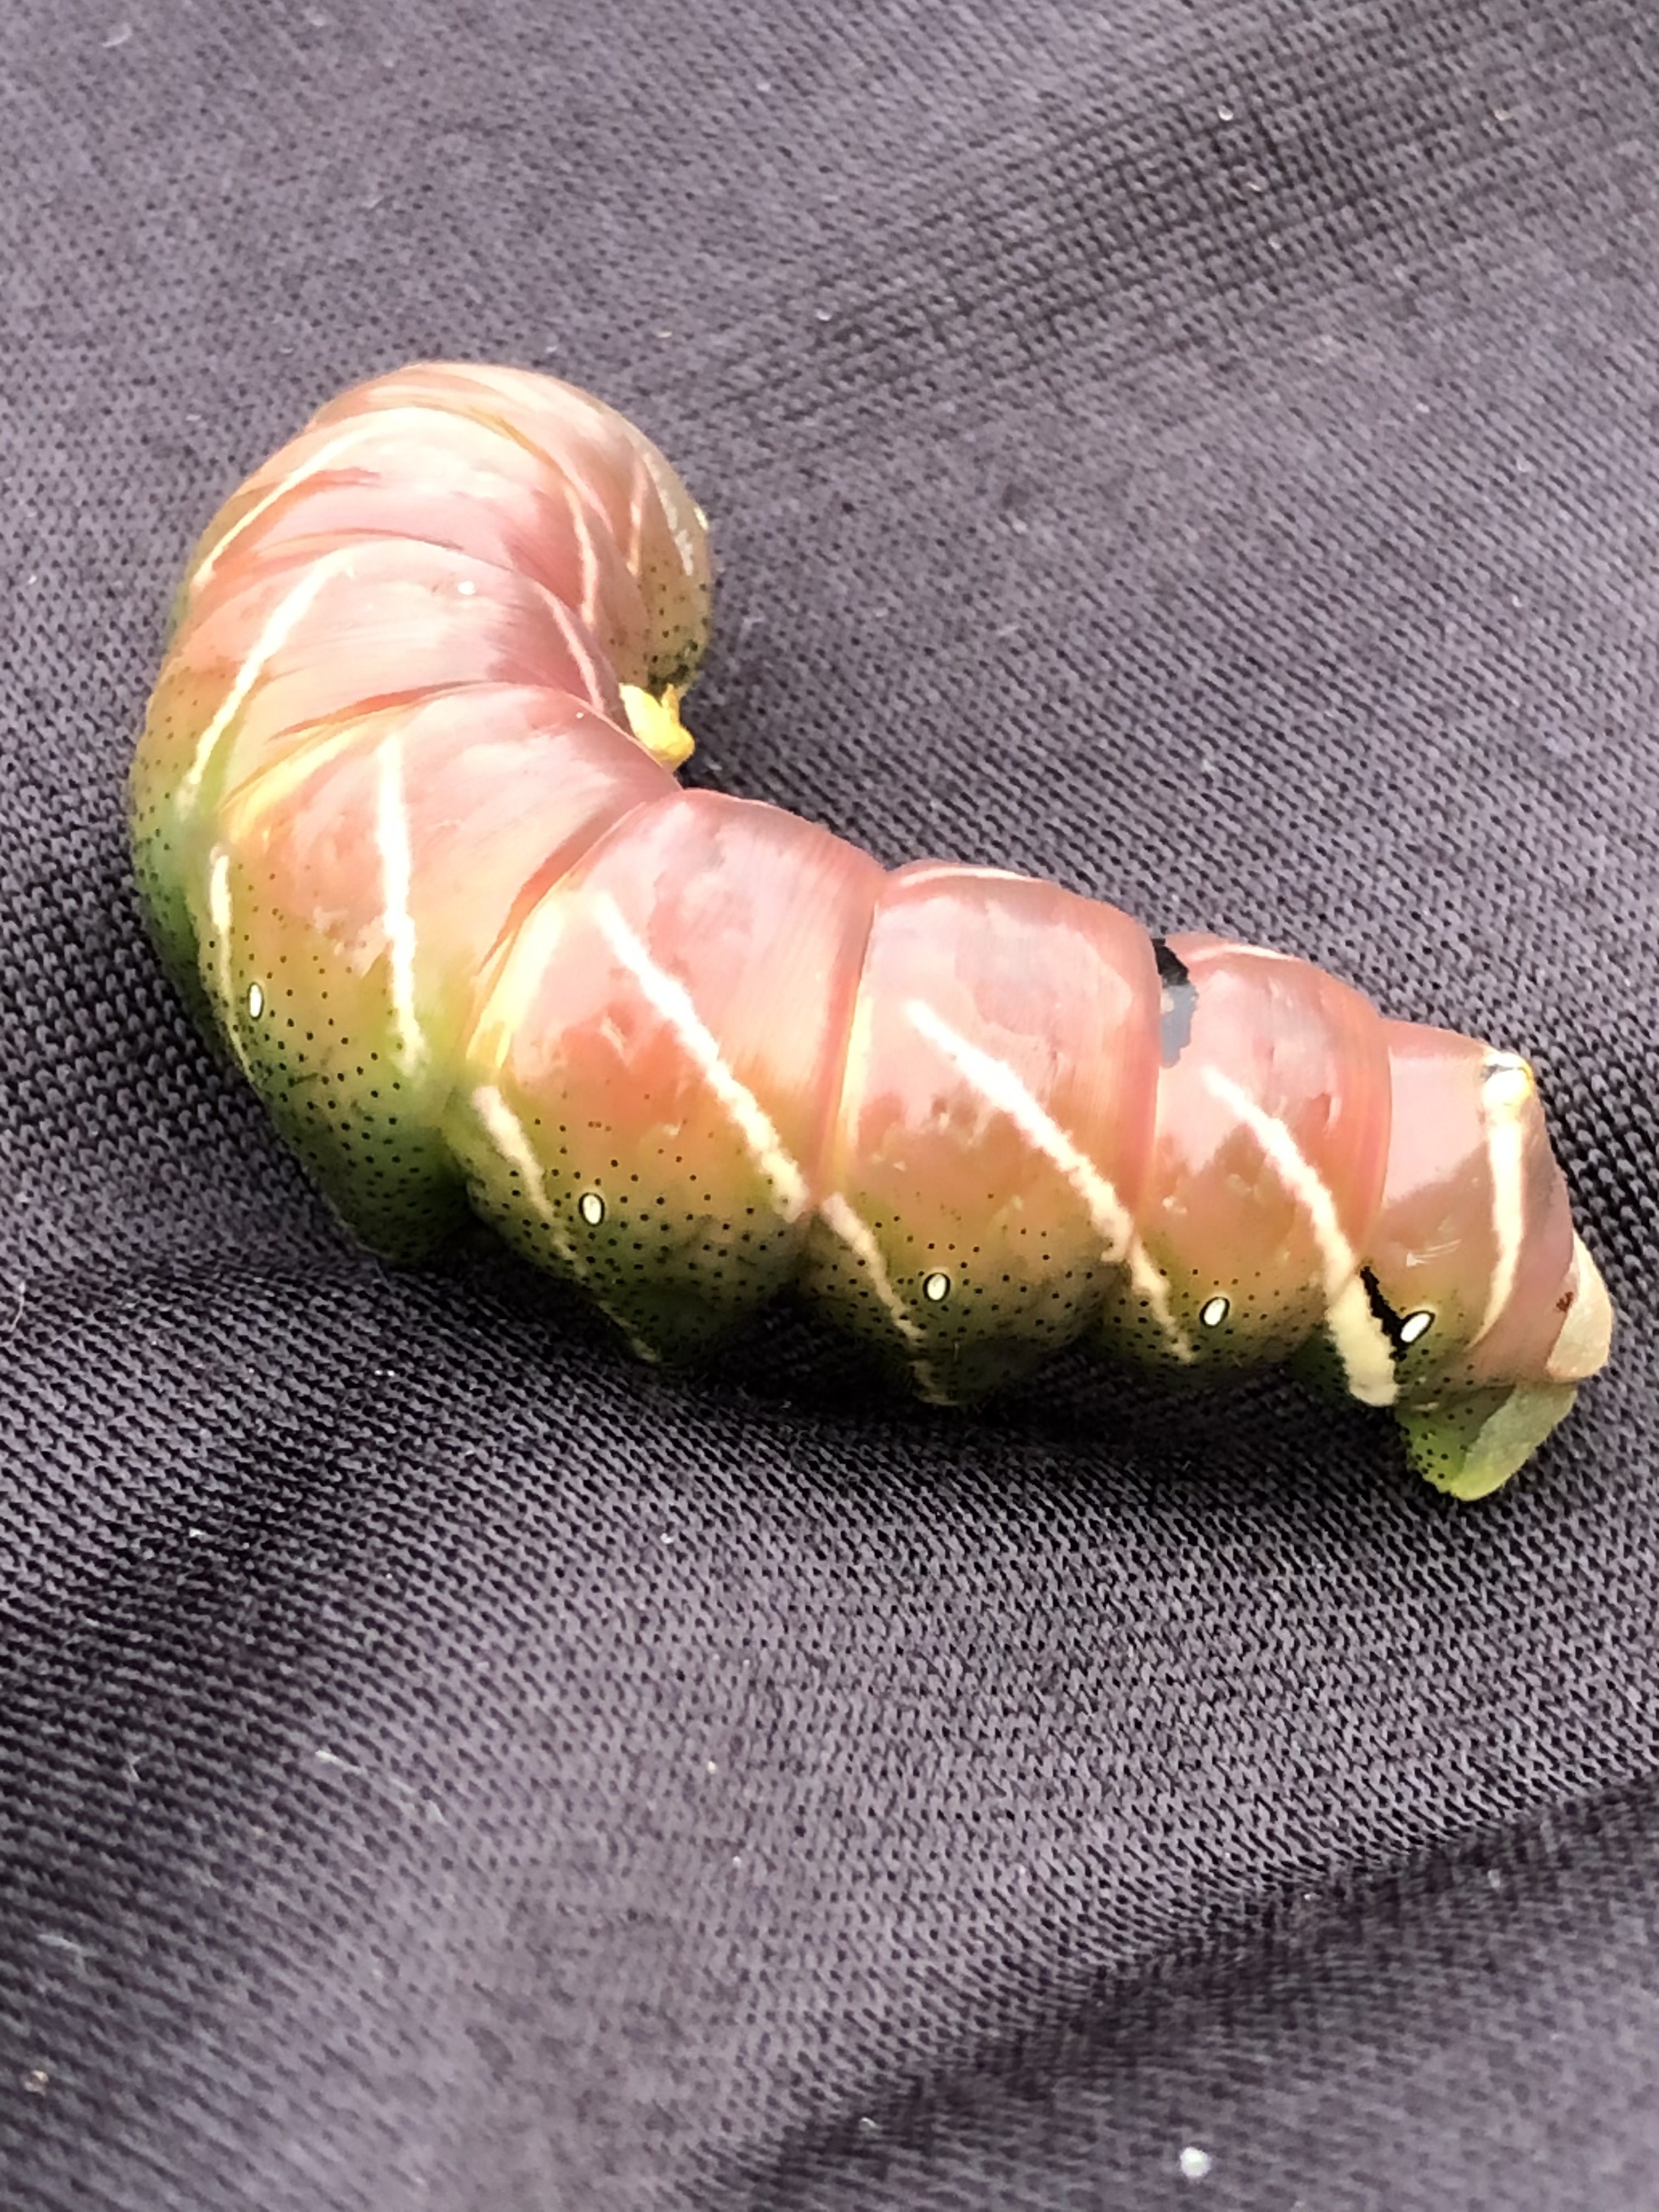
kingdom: Animalia
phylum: Arthropoda
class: Insecta
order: Lepidoptera
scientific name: Lepidoptera
